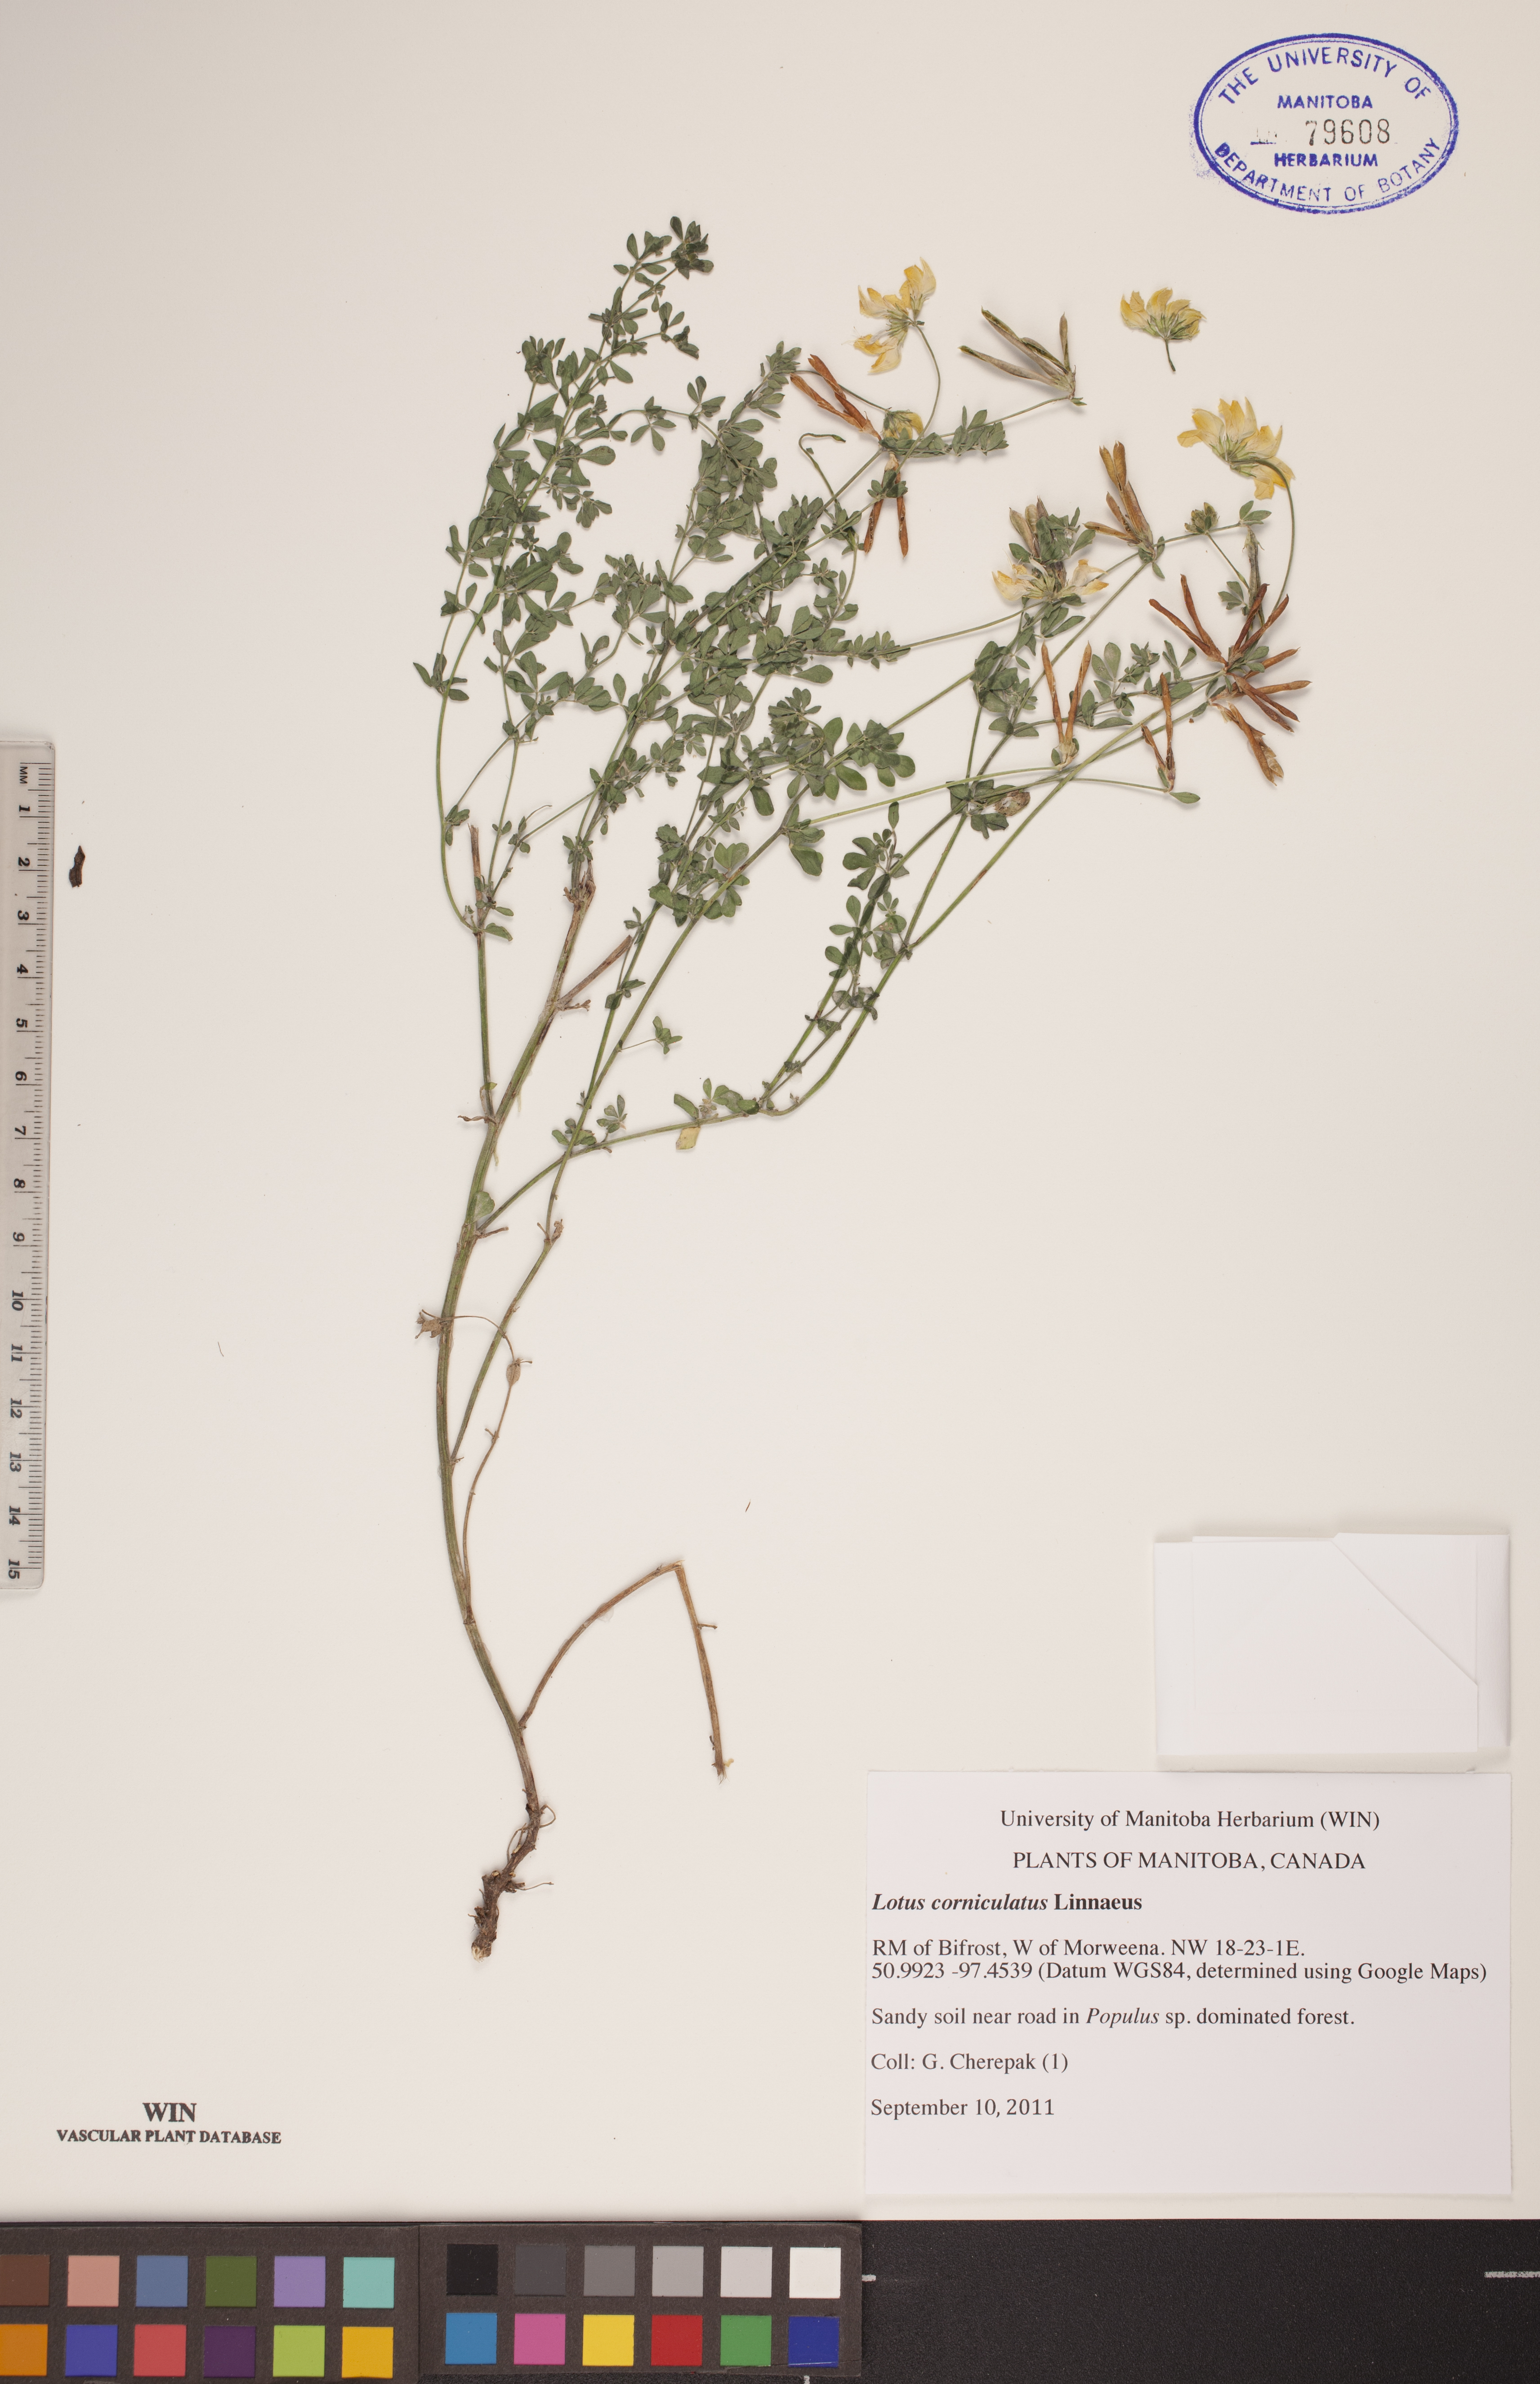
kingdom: Plantae
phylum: Tracheophyta
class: Magnoliopsida
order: Fabales
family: Fabaceae
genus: Lotus
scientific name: Lotus corniculatus
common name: Common bird's-foot-trefoil
